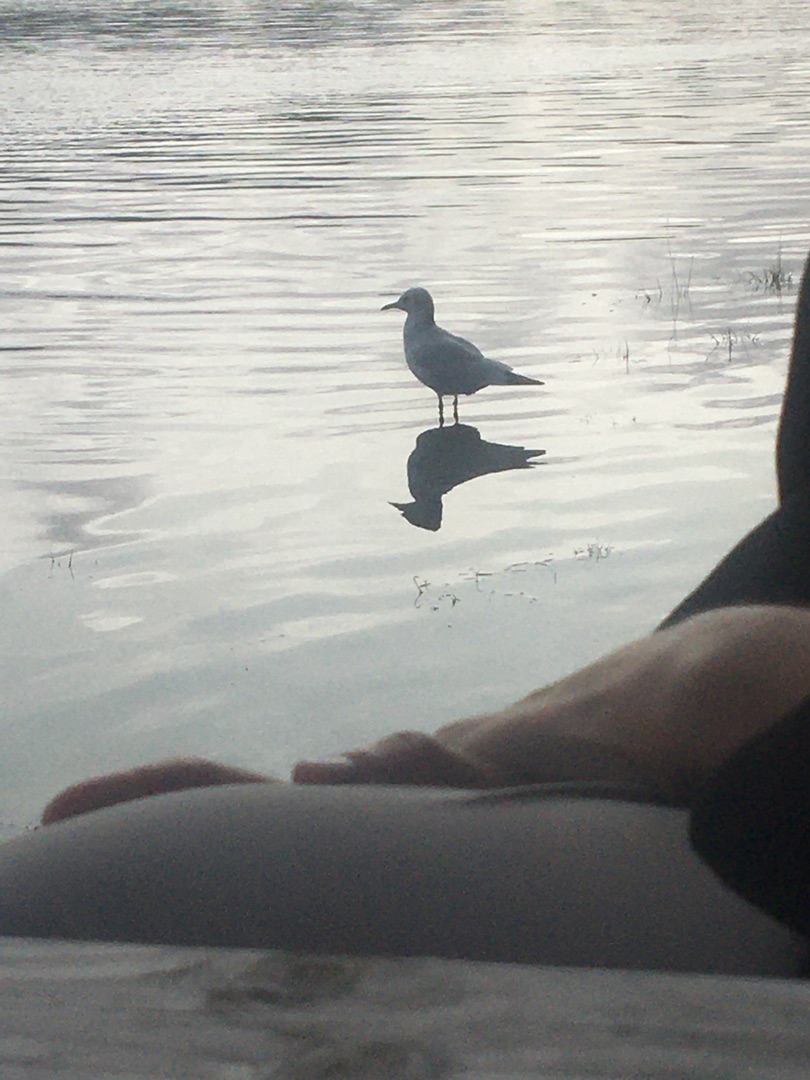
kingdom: Animalia
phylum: Chordata
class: Aves
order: Charadriiformes
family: Laridae
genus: Chroicocephalus
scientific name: Chroicocephalus ridibundus
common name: Hættemåge
